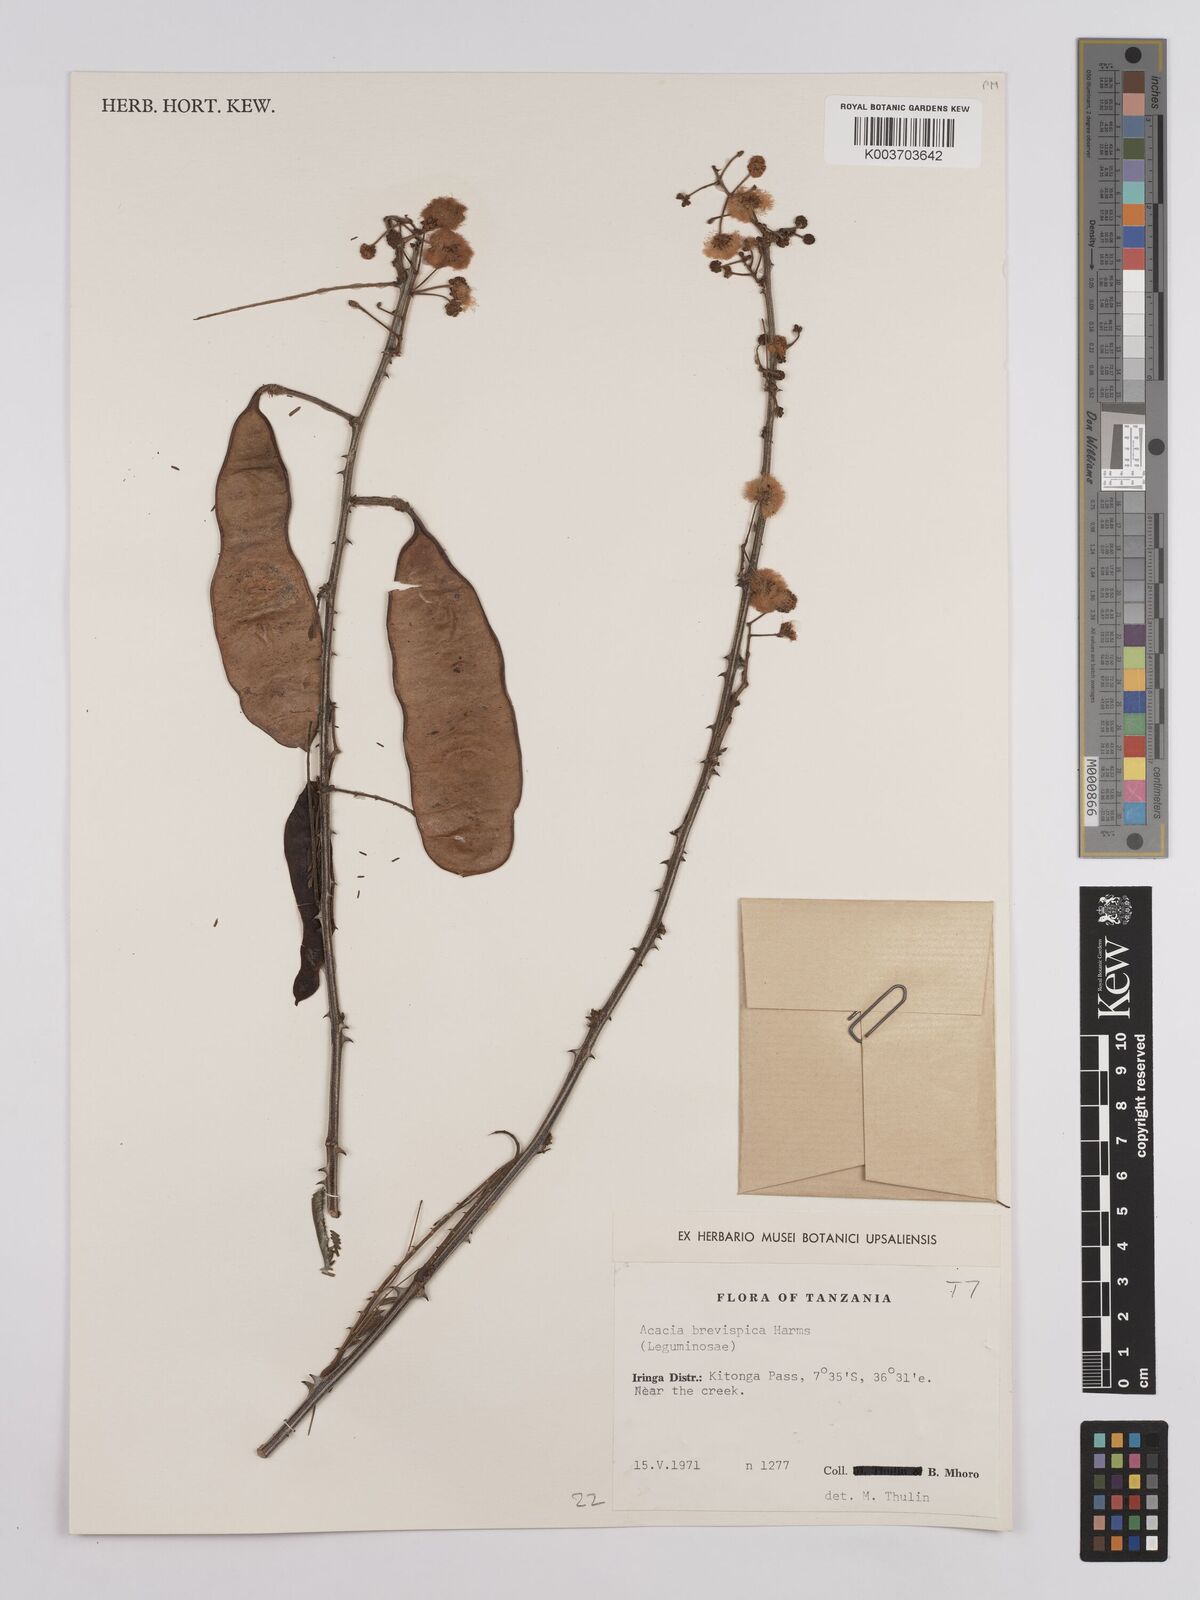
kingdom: Plantae
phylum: Tracheophyta
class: Magnoliopsida
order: Fabales
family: Fabaceae
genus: Senegalia
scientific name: Senegalia brevispica
